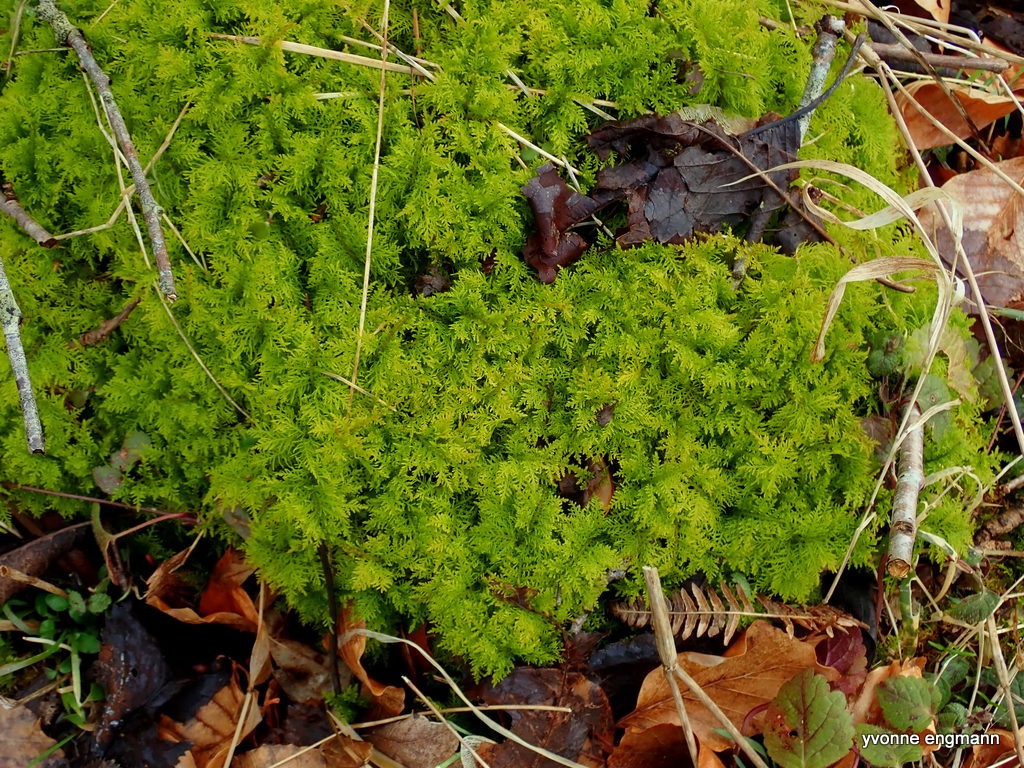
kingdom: Plantae
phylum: Bryophyta
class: Bryopsida
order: Hypnales
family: Thuidiaceae
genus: Thuidium
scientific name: Thuidium tamariscinum
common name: Pryd-bregnemos
